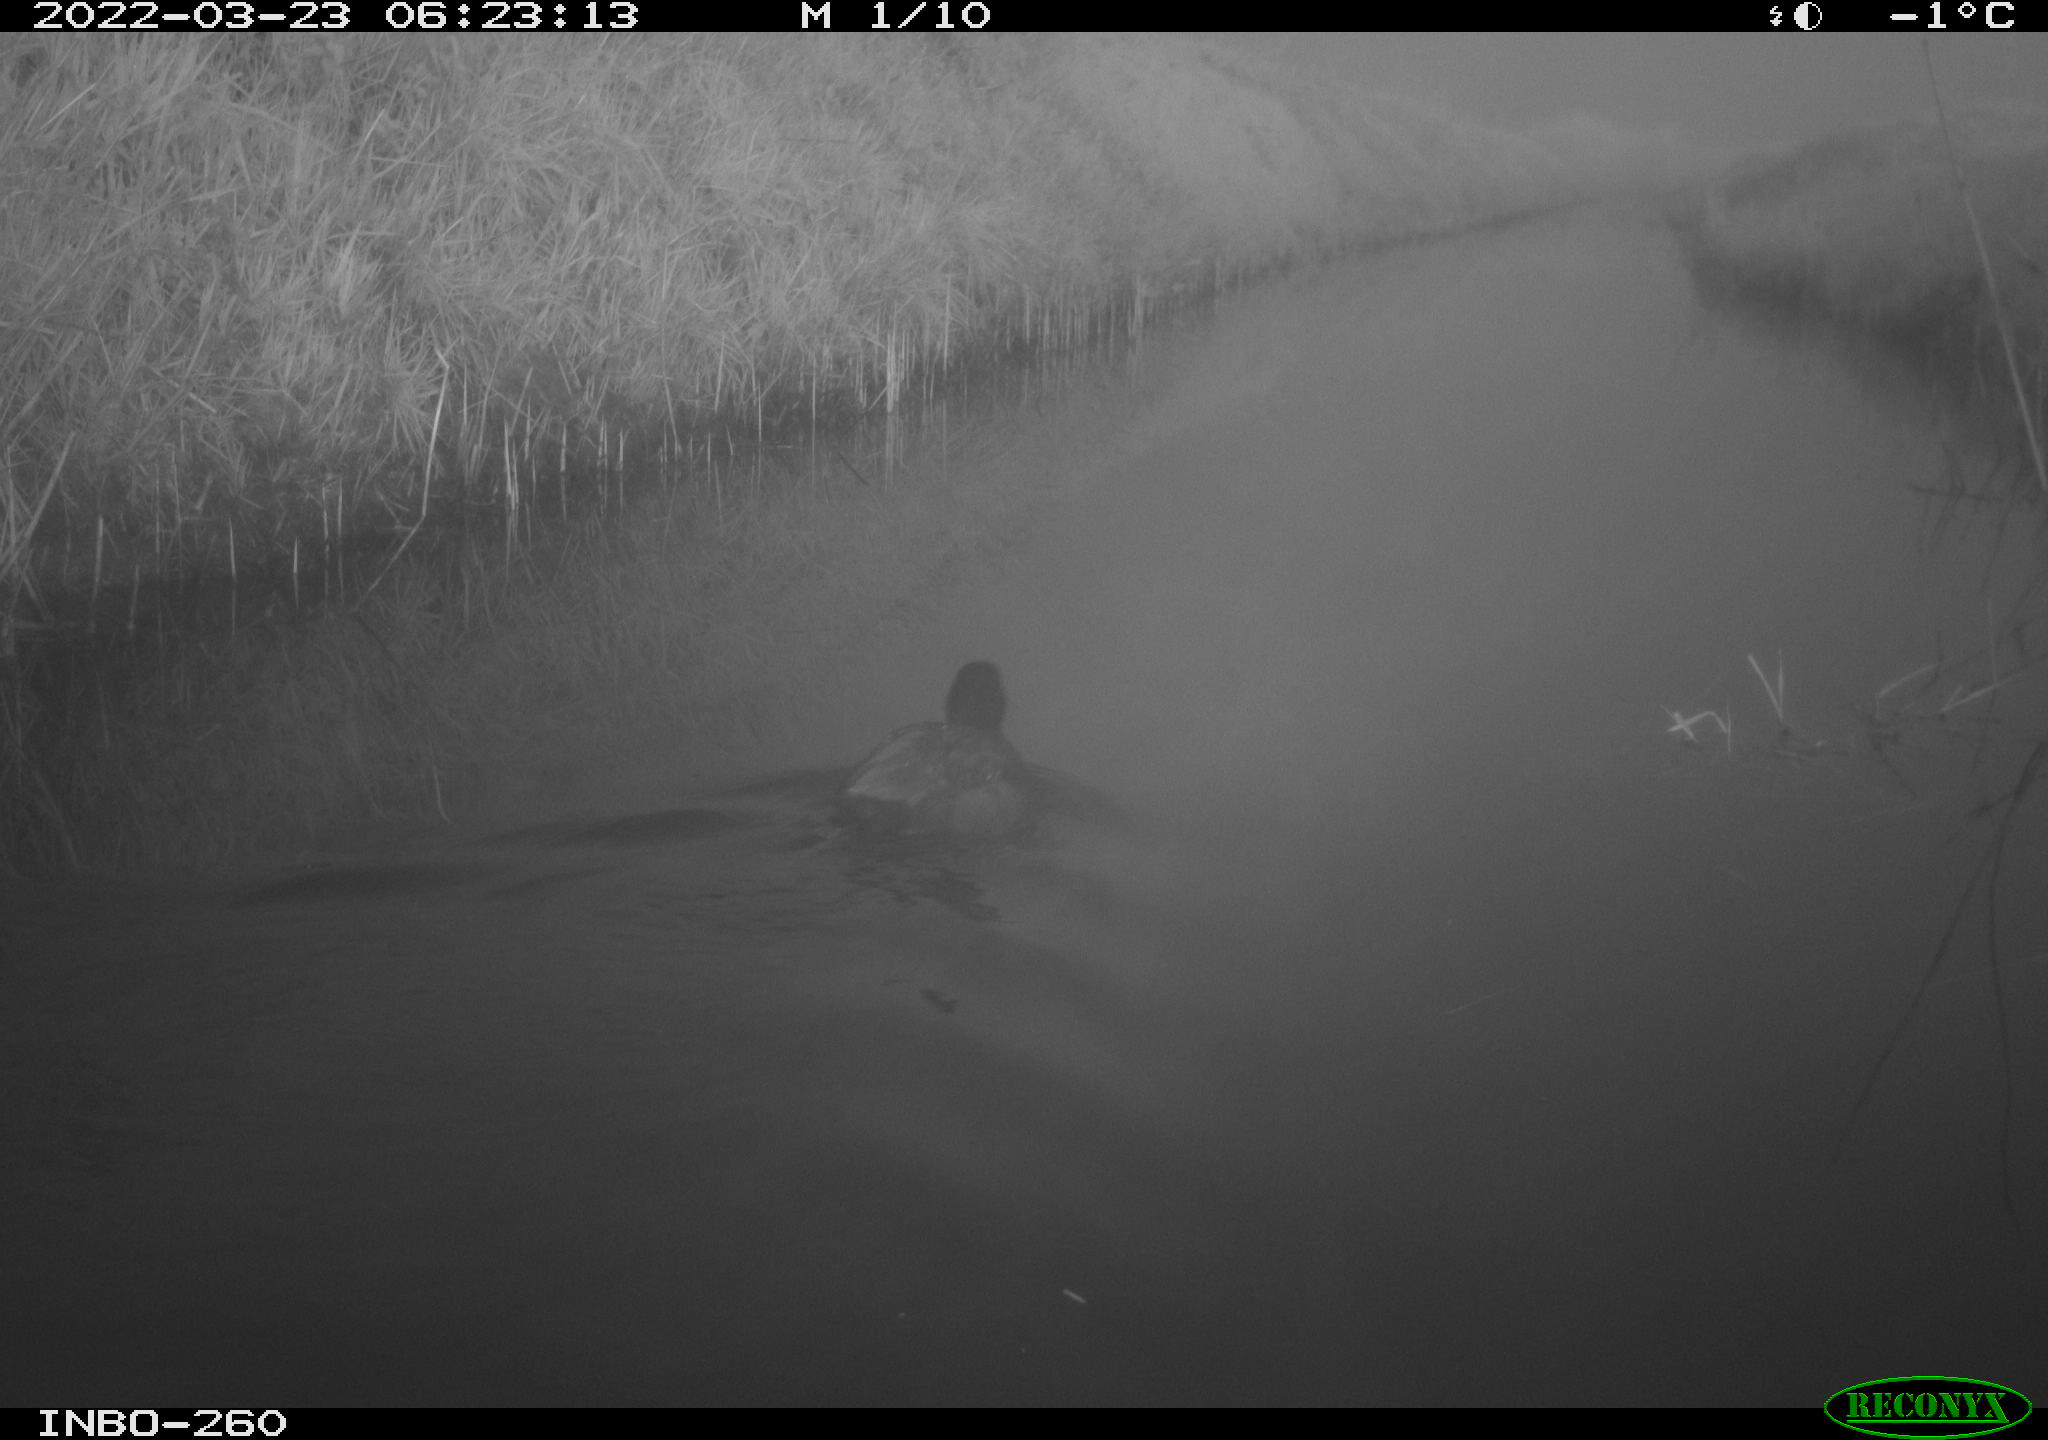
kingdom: Animalia
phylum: Chordata
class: Aves
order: Gruiformes
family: Rallidae
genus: Fulica
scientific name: Fulica atra
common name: Eurasian coot
